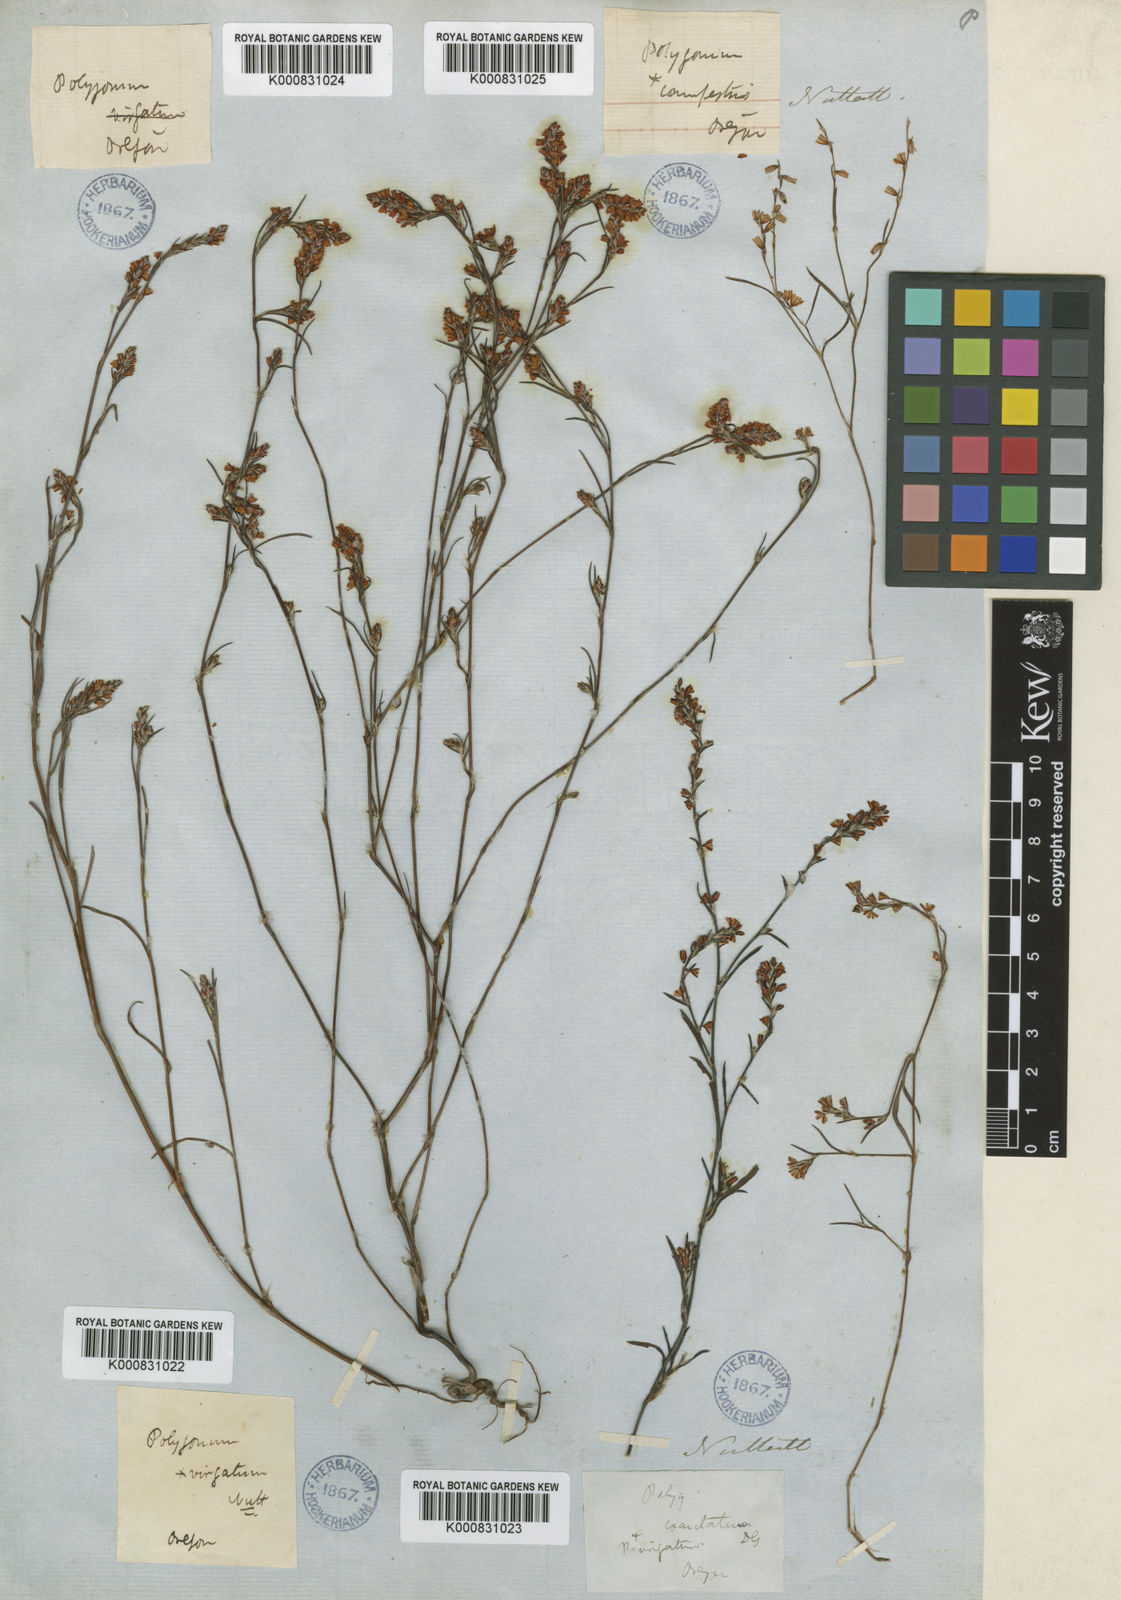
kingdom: Plantae
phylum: Tracheophyta
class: Magnoliopsida
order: Caryophyllales
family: Polygonaceae
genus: Polygonum
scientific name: Polygonum douglasii
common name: Douglas' knotweed
